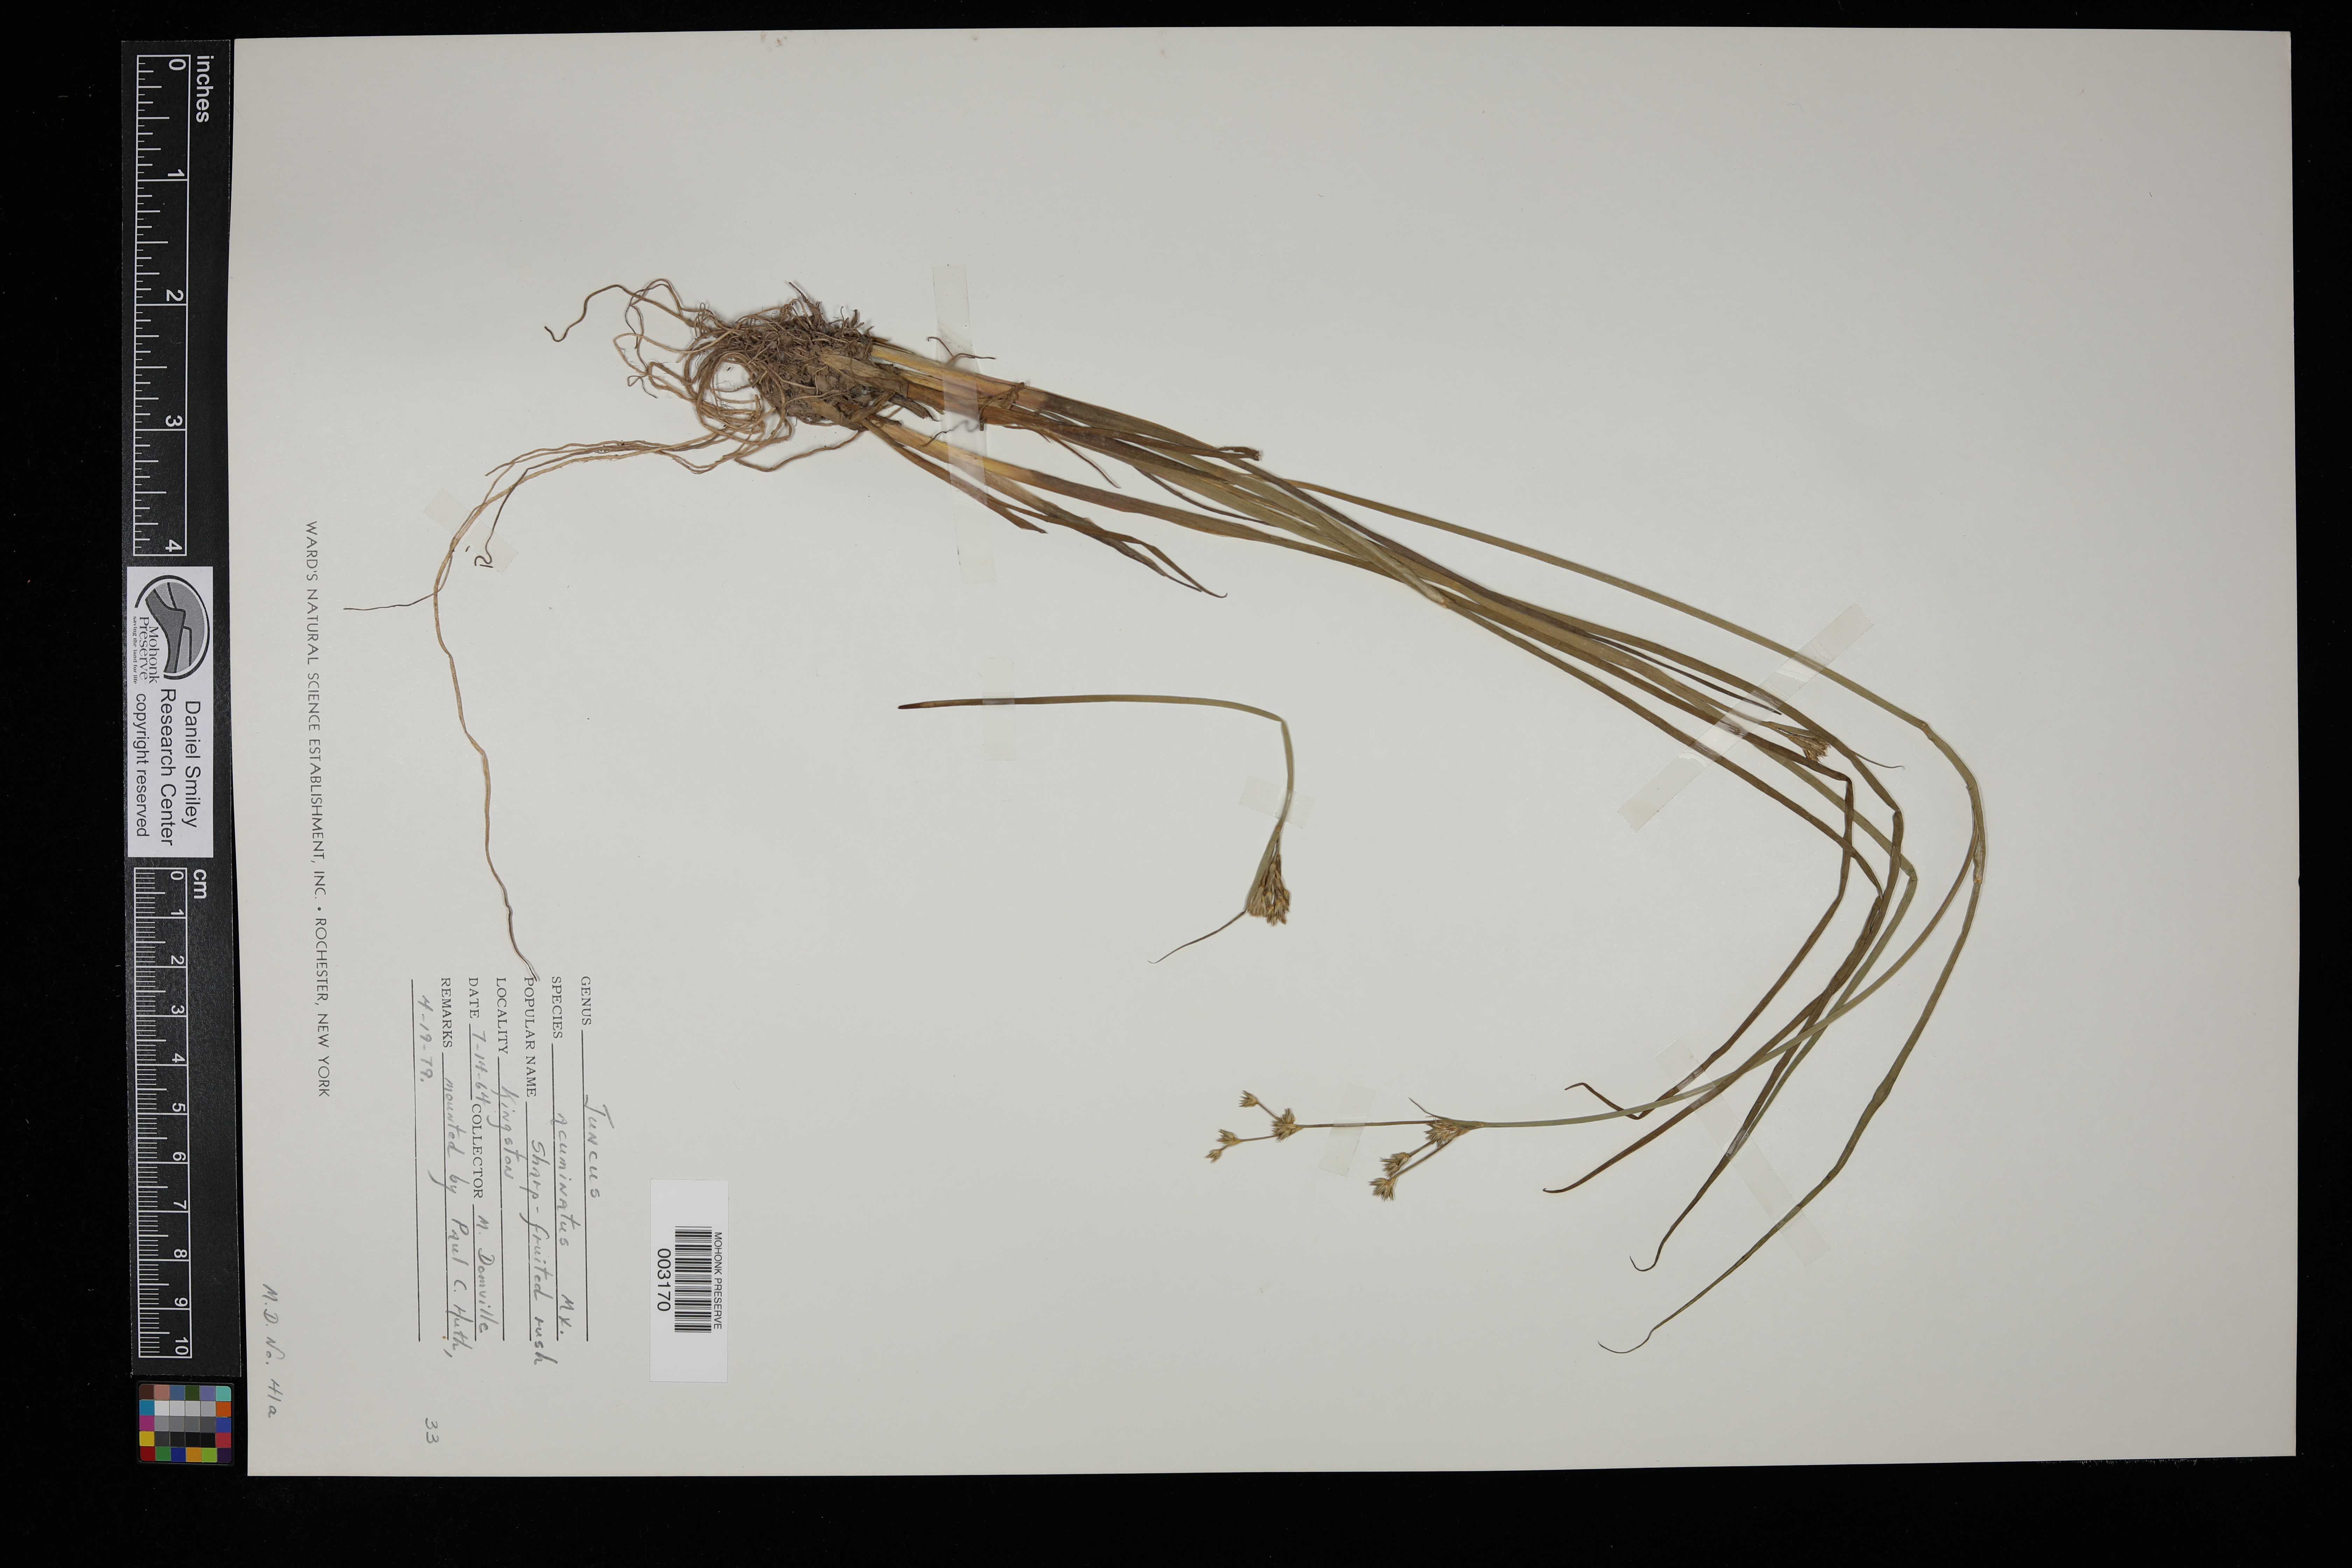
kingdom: Plantae
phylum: Tracheophyta
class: Liliopsida
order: Poales
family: Juncaceae
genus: Juncus
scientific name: Juncus acuminatus
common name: Knotty-leaved rush
